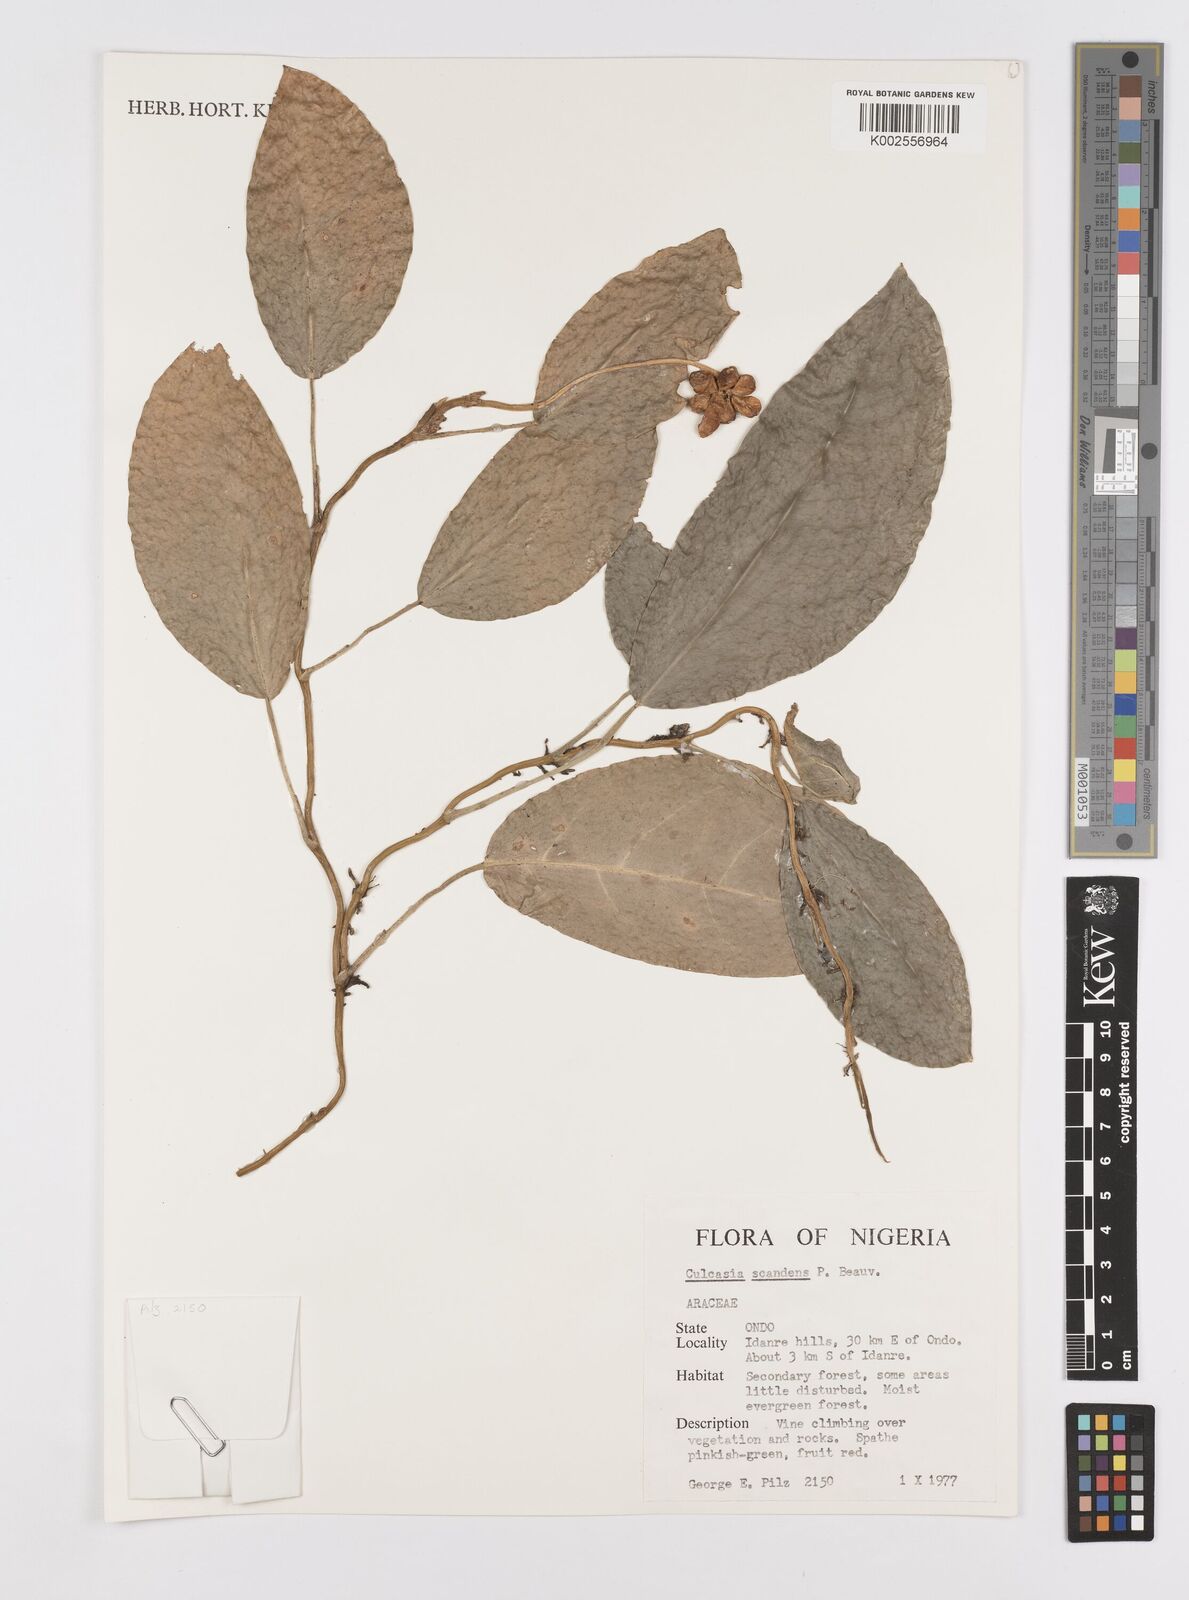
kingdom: Plantae
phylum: Tracheophyta
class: Liliopsida
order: Alismatales
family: Araceae
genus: Culcasia
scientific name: Culcasia scandens
